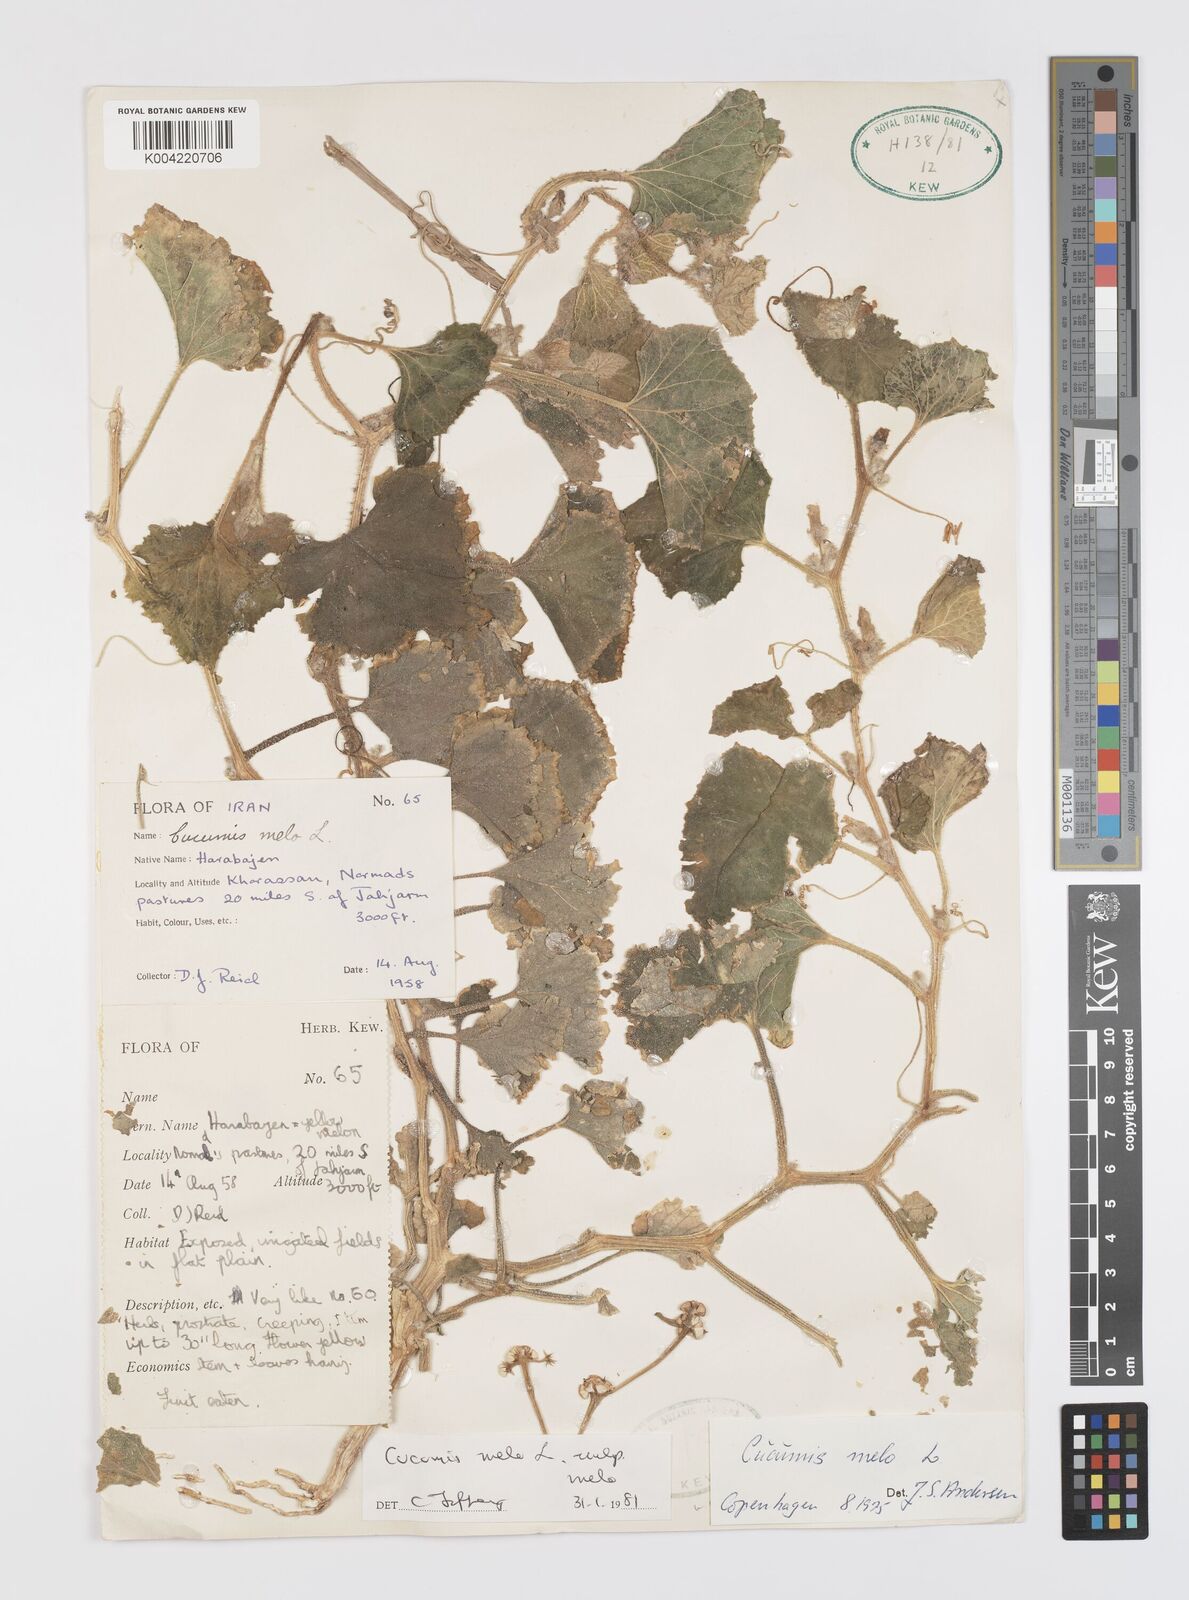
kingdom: Plantae
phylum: Tracheophyta
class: Magnoliopsida
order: Cucurbitales
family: Cucurbitaceae
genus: Cucumis
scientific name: Cucumis melo
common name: Melon
